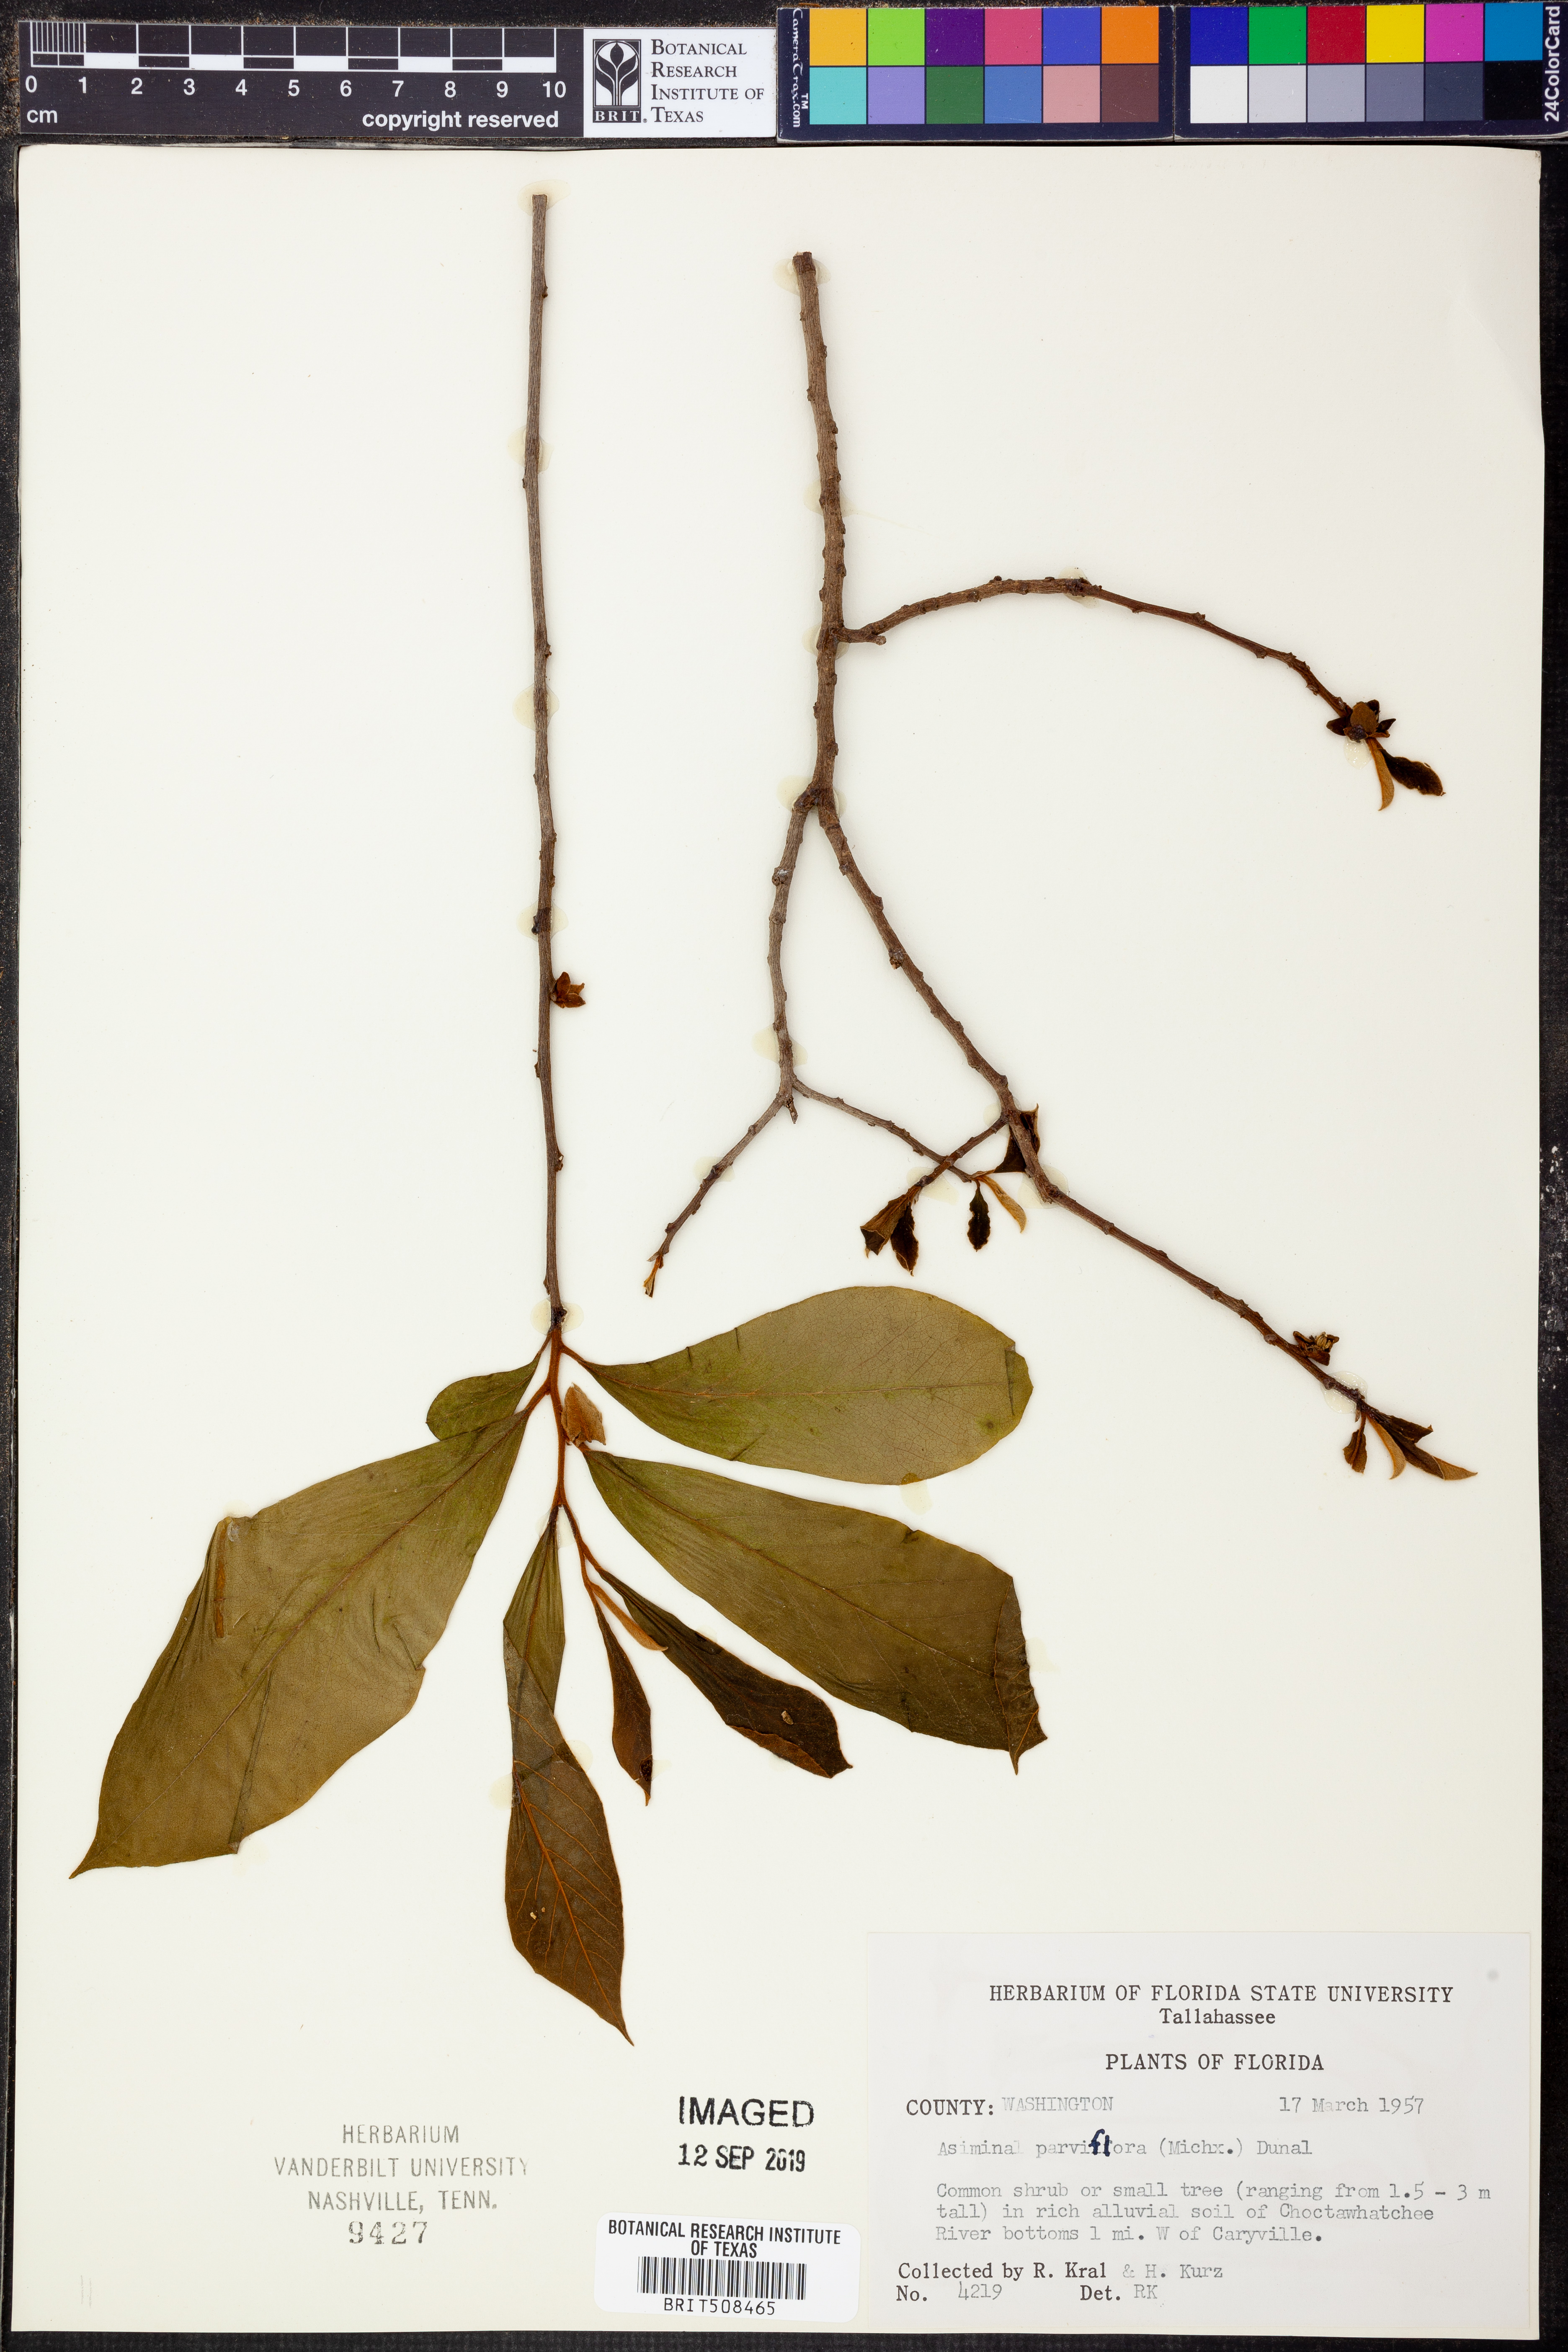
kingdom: Plantae
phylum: Tracheophyta
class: Magnoliopsida
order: Magnoliales
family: Annonaceae
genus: Asimina
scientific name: Asimina parviflora
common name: Dwarf pawpaw
